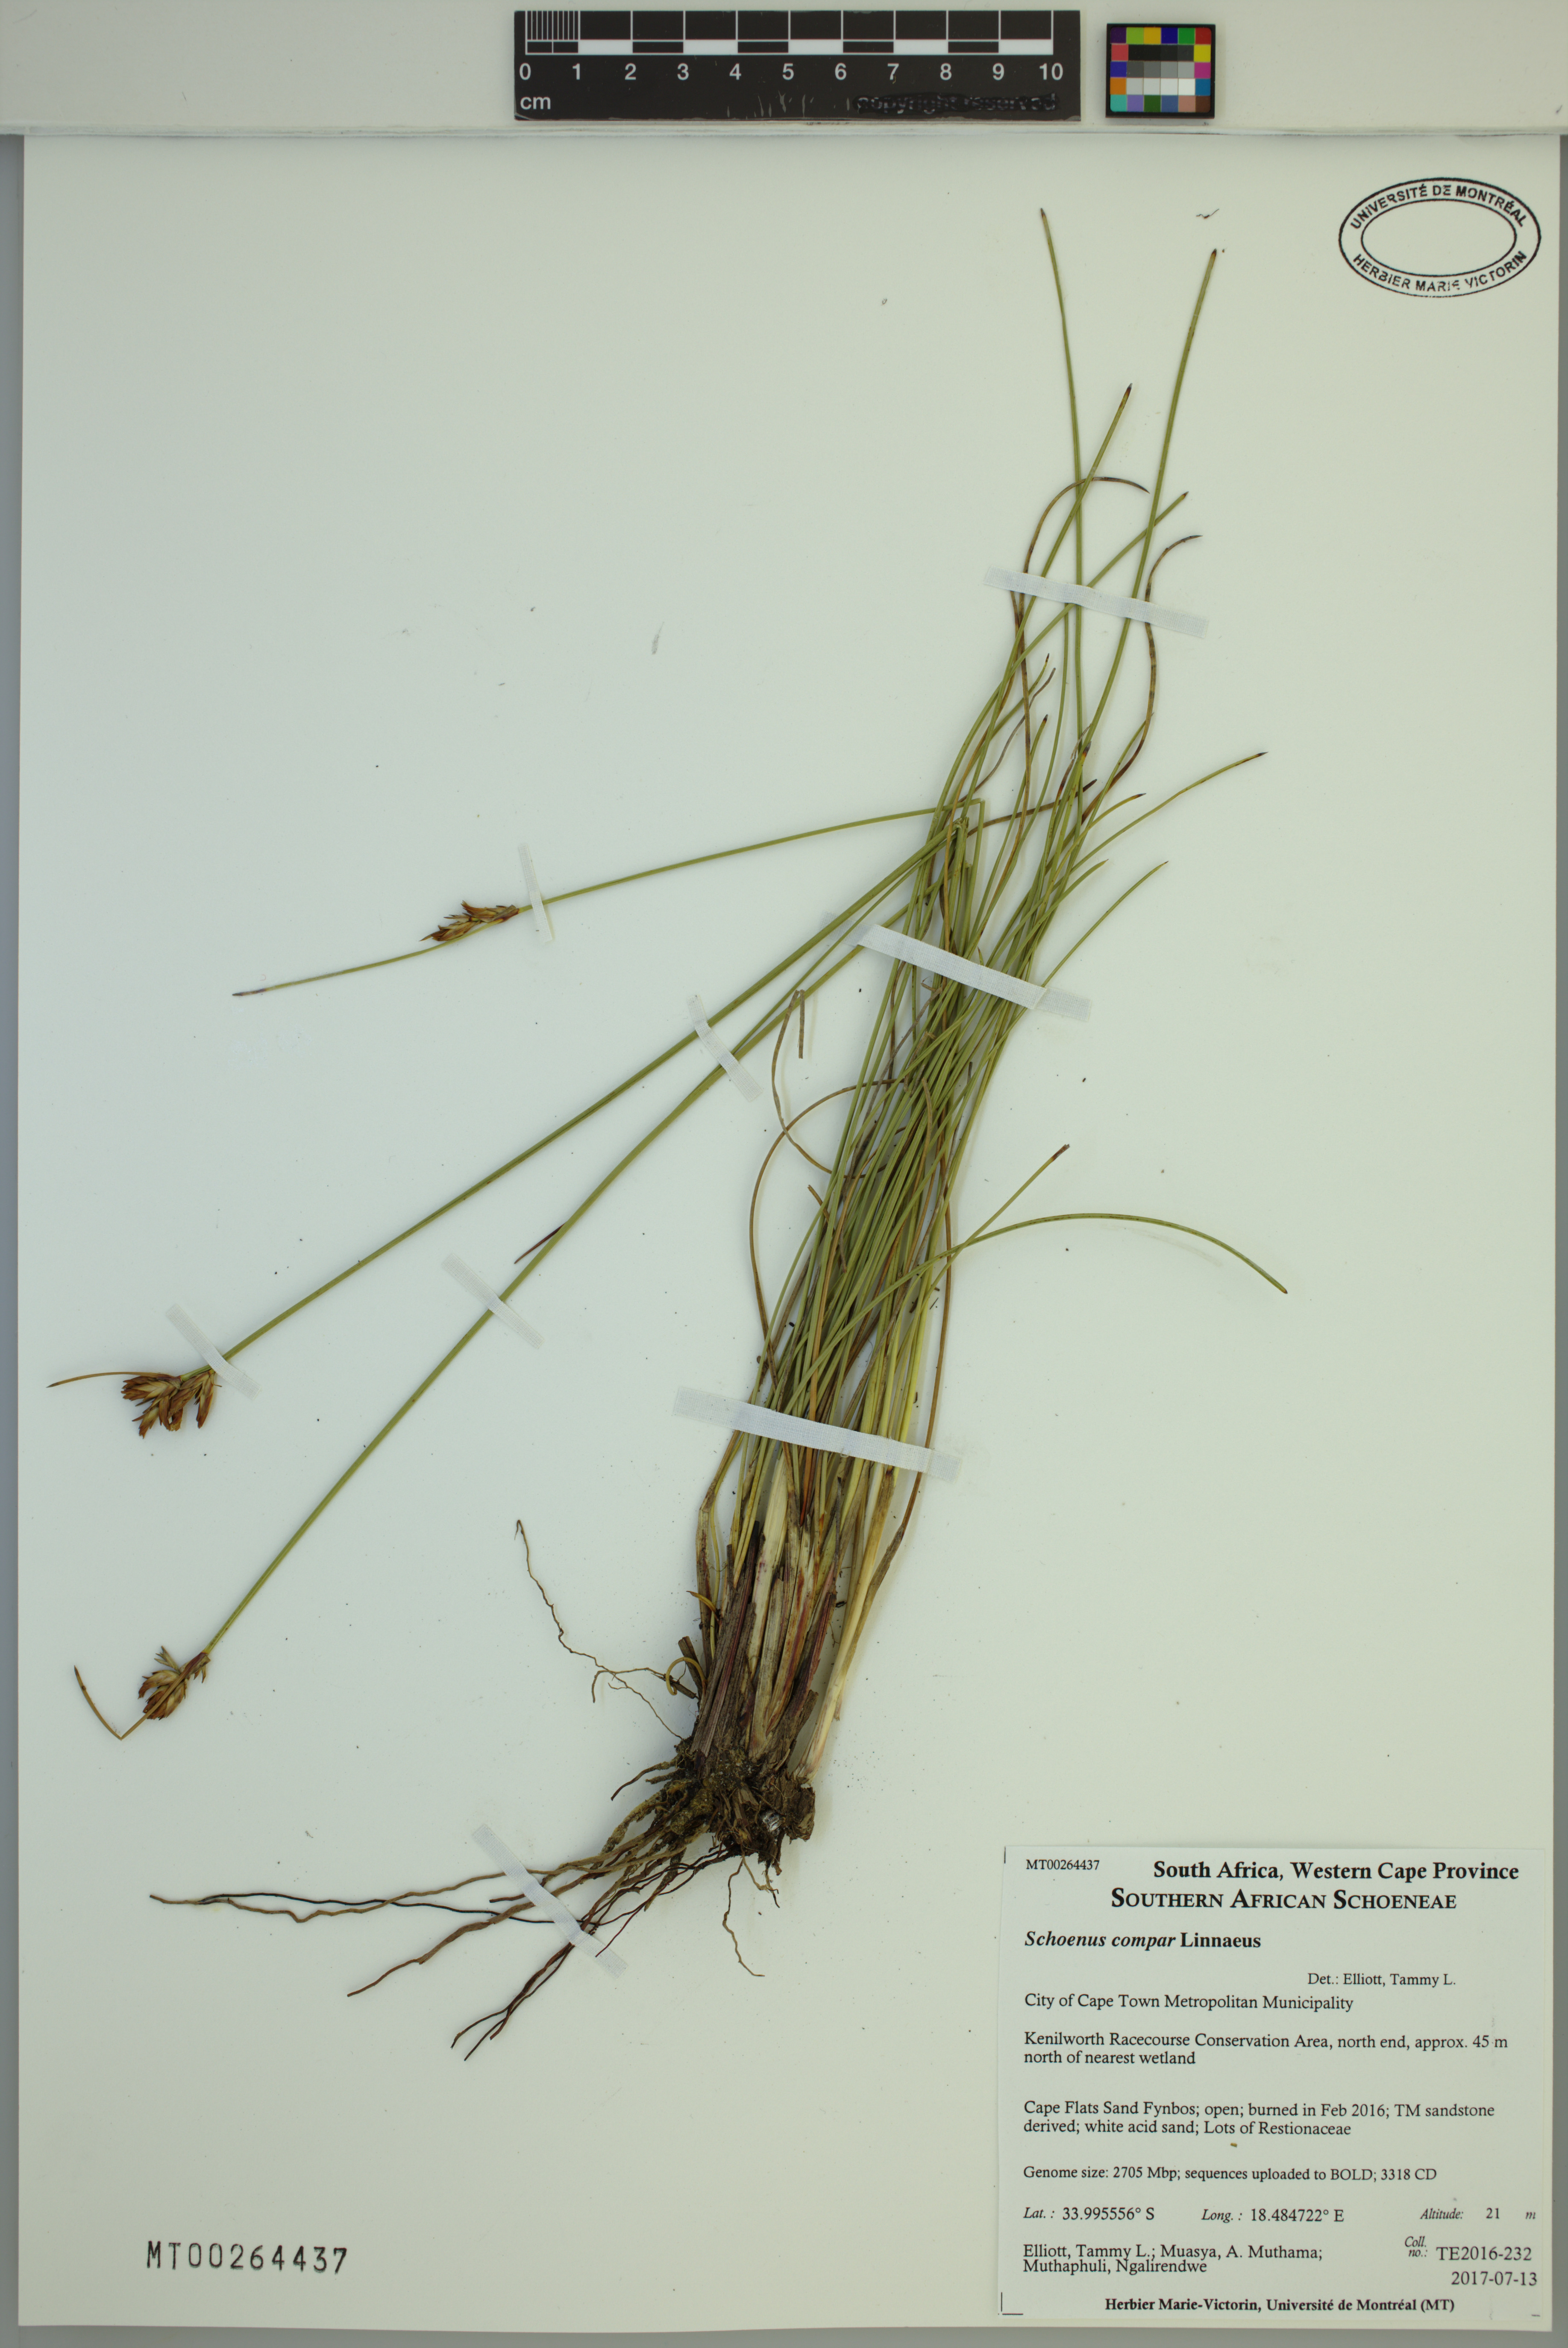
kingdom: Plantae
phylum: Tracheophyta
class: Liliopsida
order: Poales
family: Cyperaceae
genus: Schoenus
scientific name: Schoenus compar
